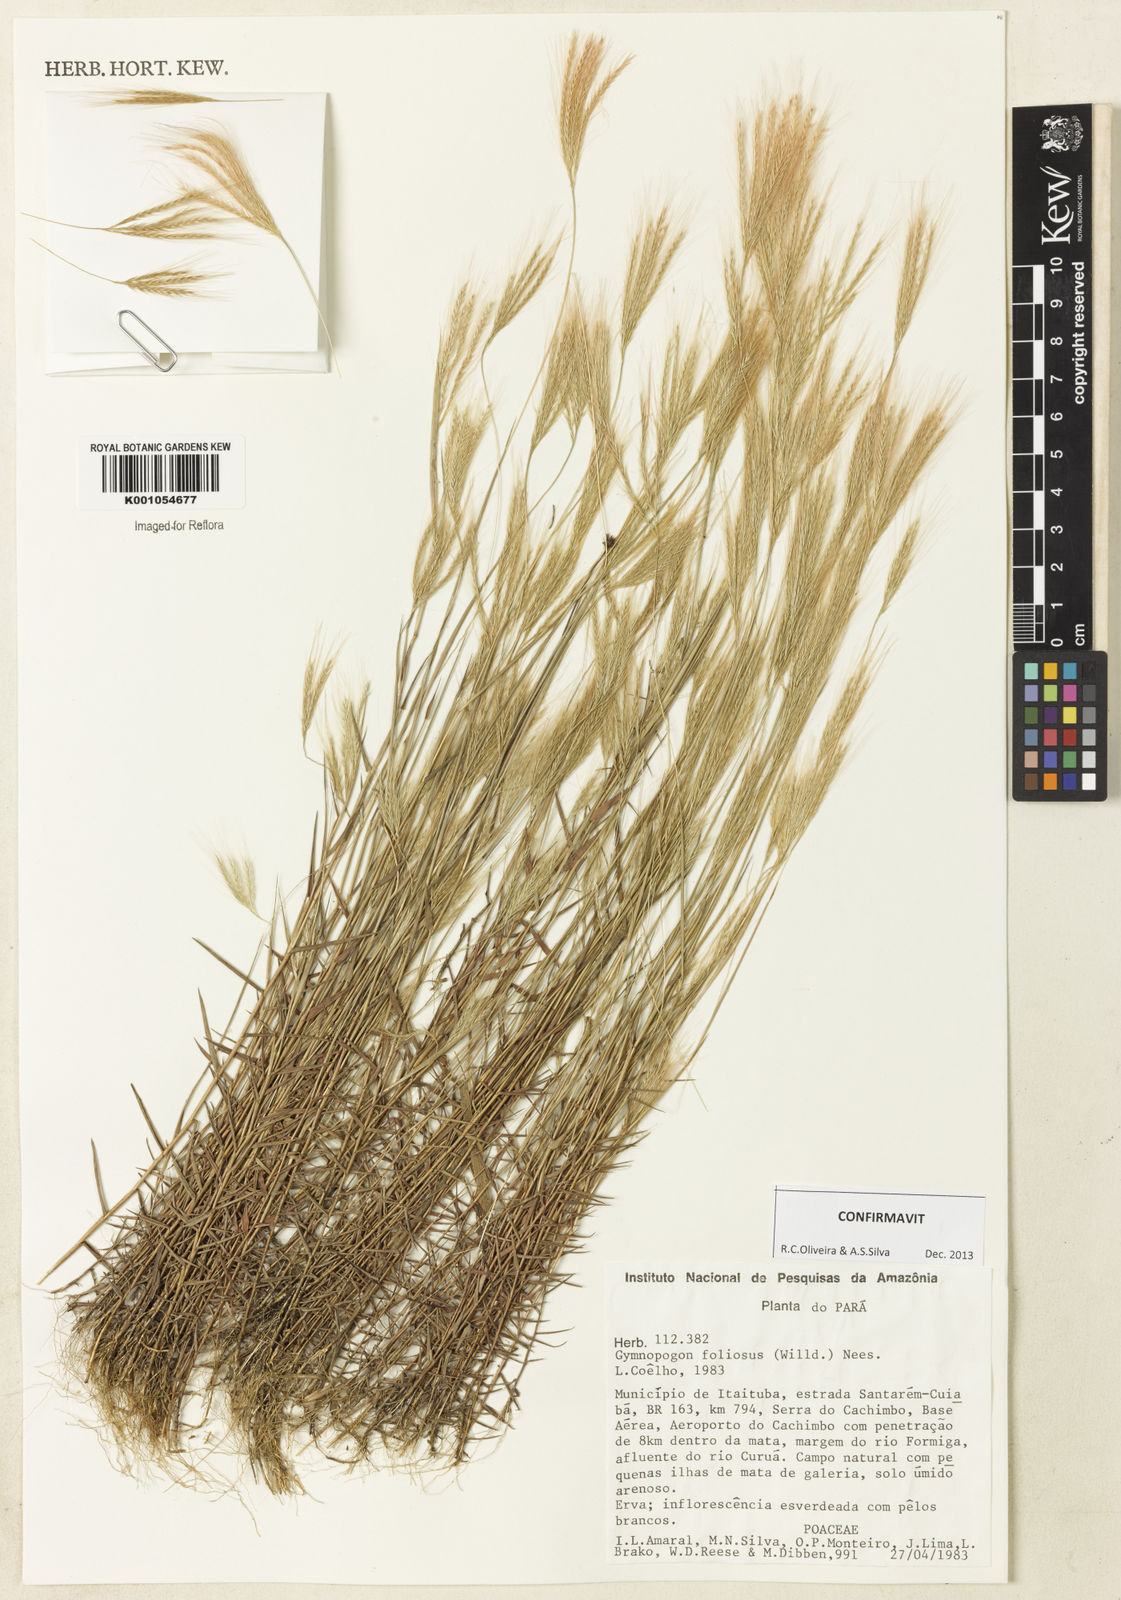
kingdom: Plantae
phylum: Tracheophyta
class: Liliopsida
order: Poales
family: Poaceae
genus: Gymnopogon
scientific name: Gymnopogon foliosus
